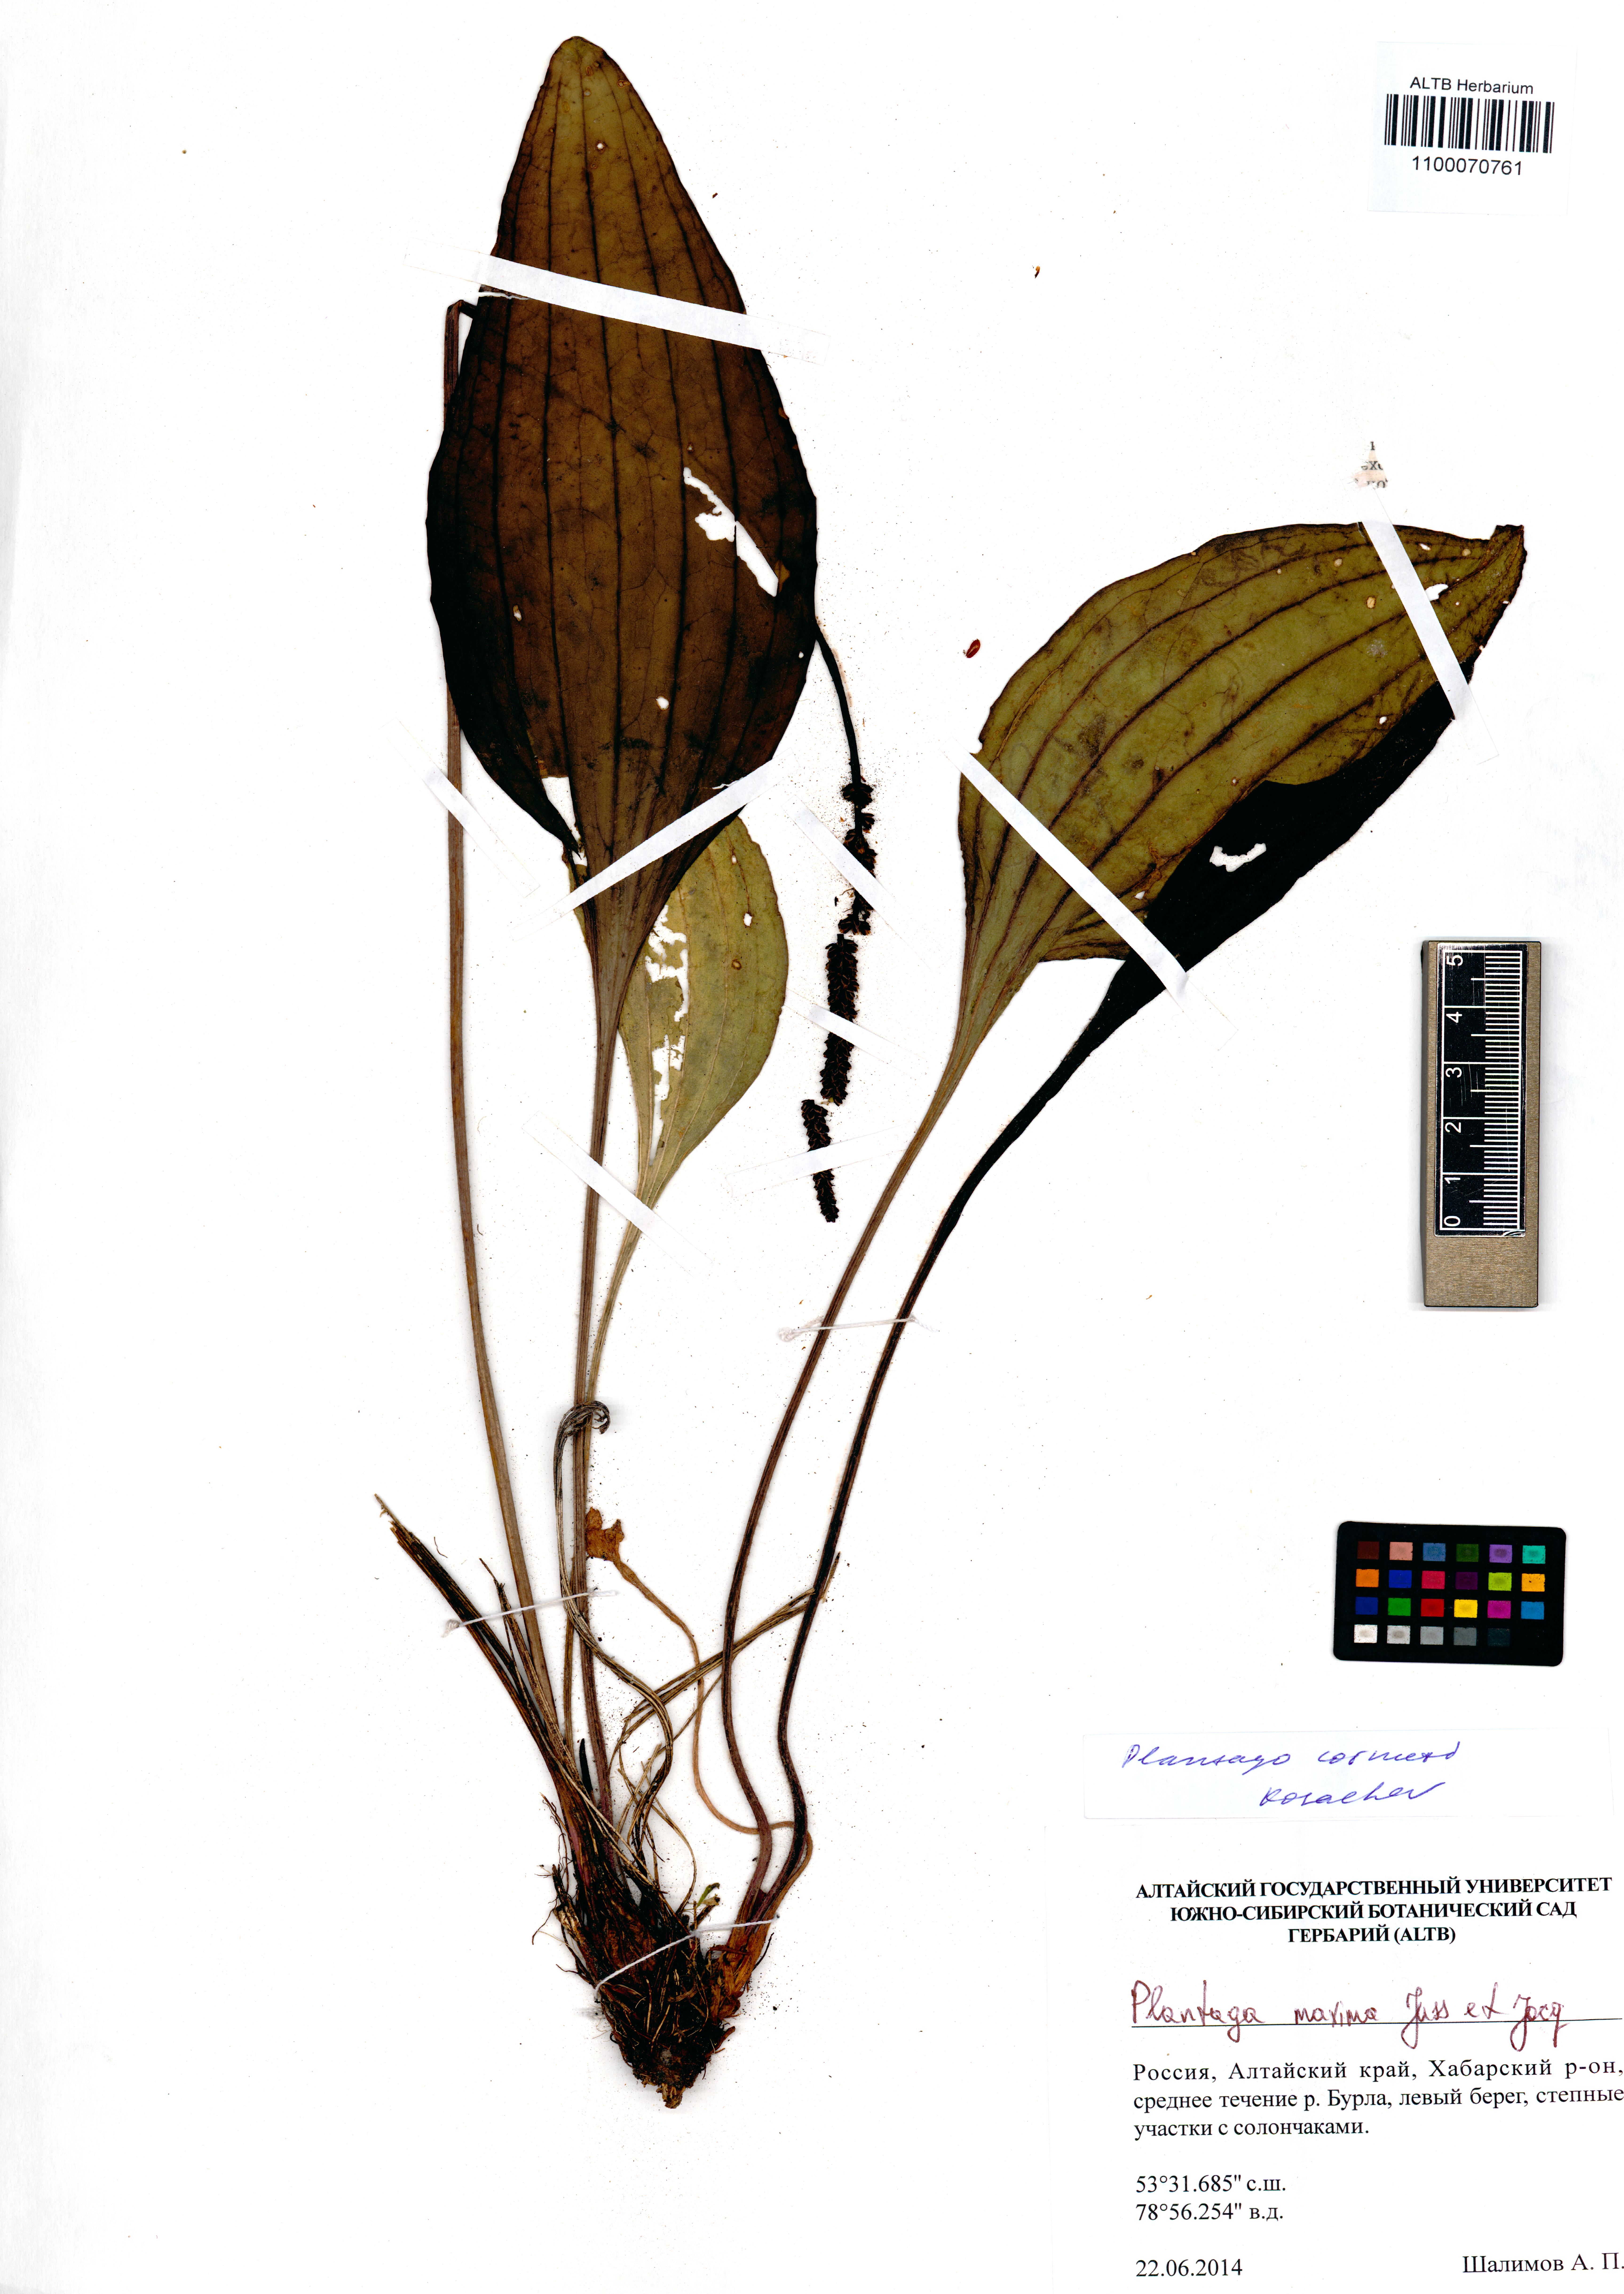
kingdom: Plantae
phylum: Tracheophyta
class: Magnoliopsida
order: Lamiales
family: Plantaginaceae
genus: Plantago
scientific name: Plantago cornuti
